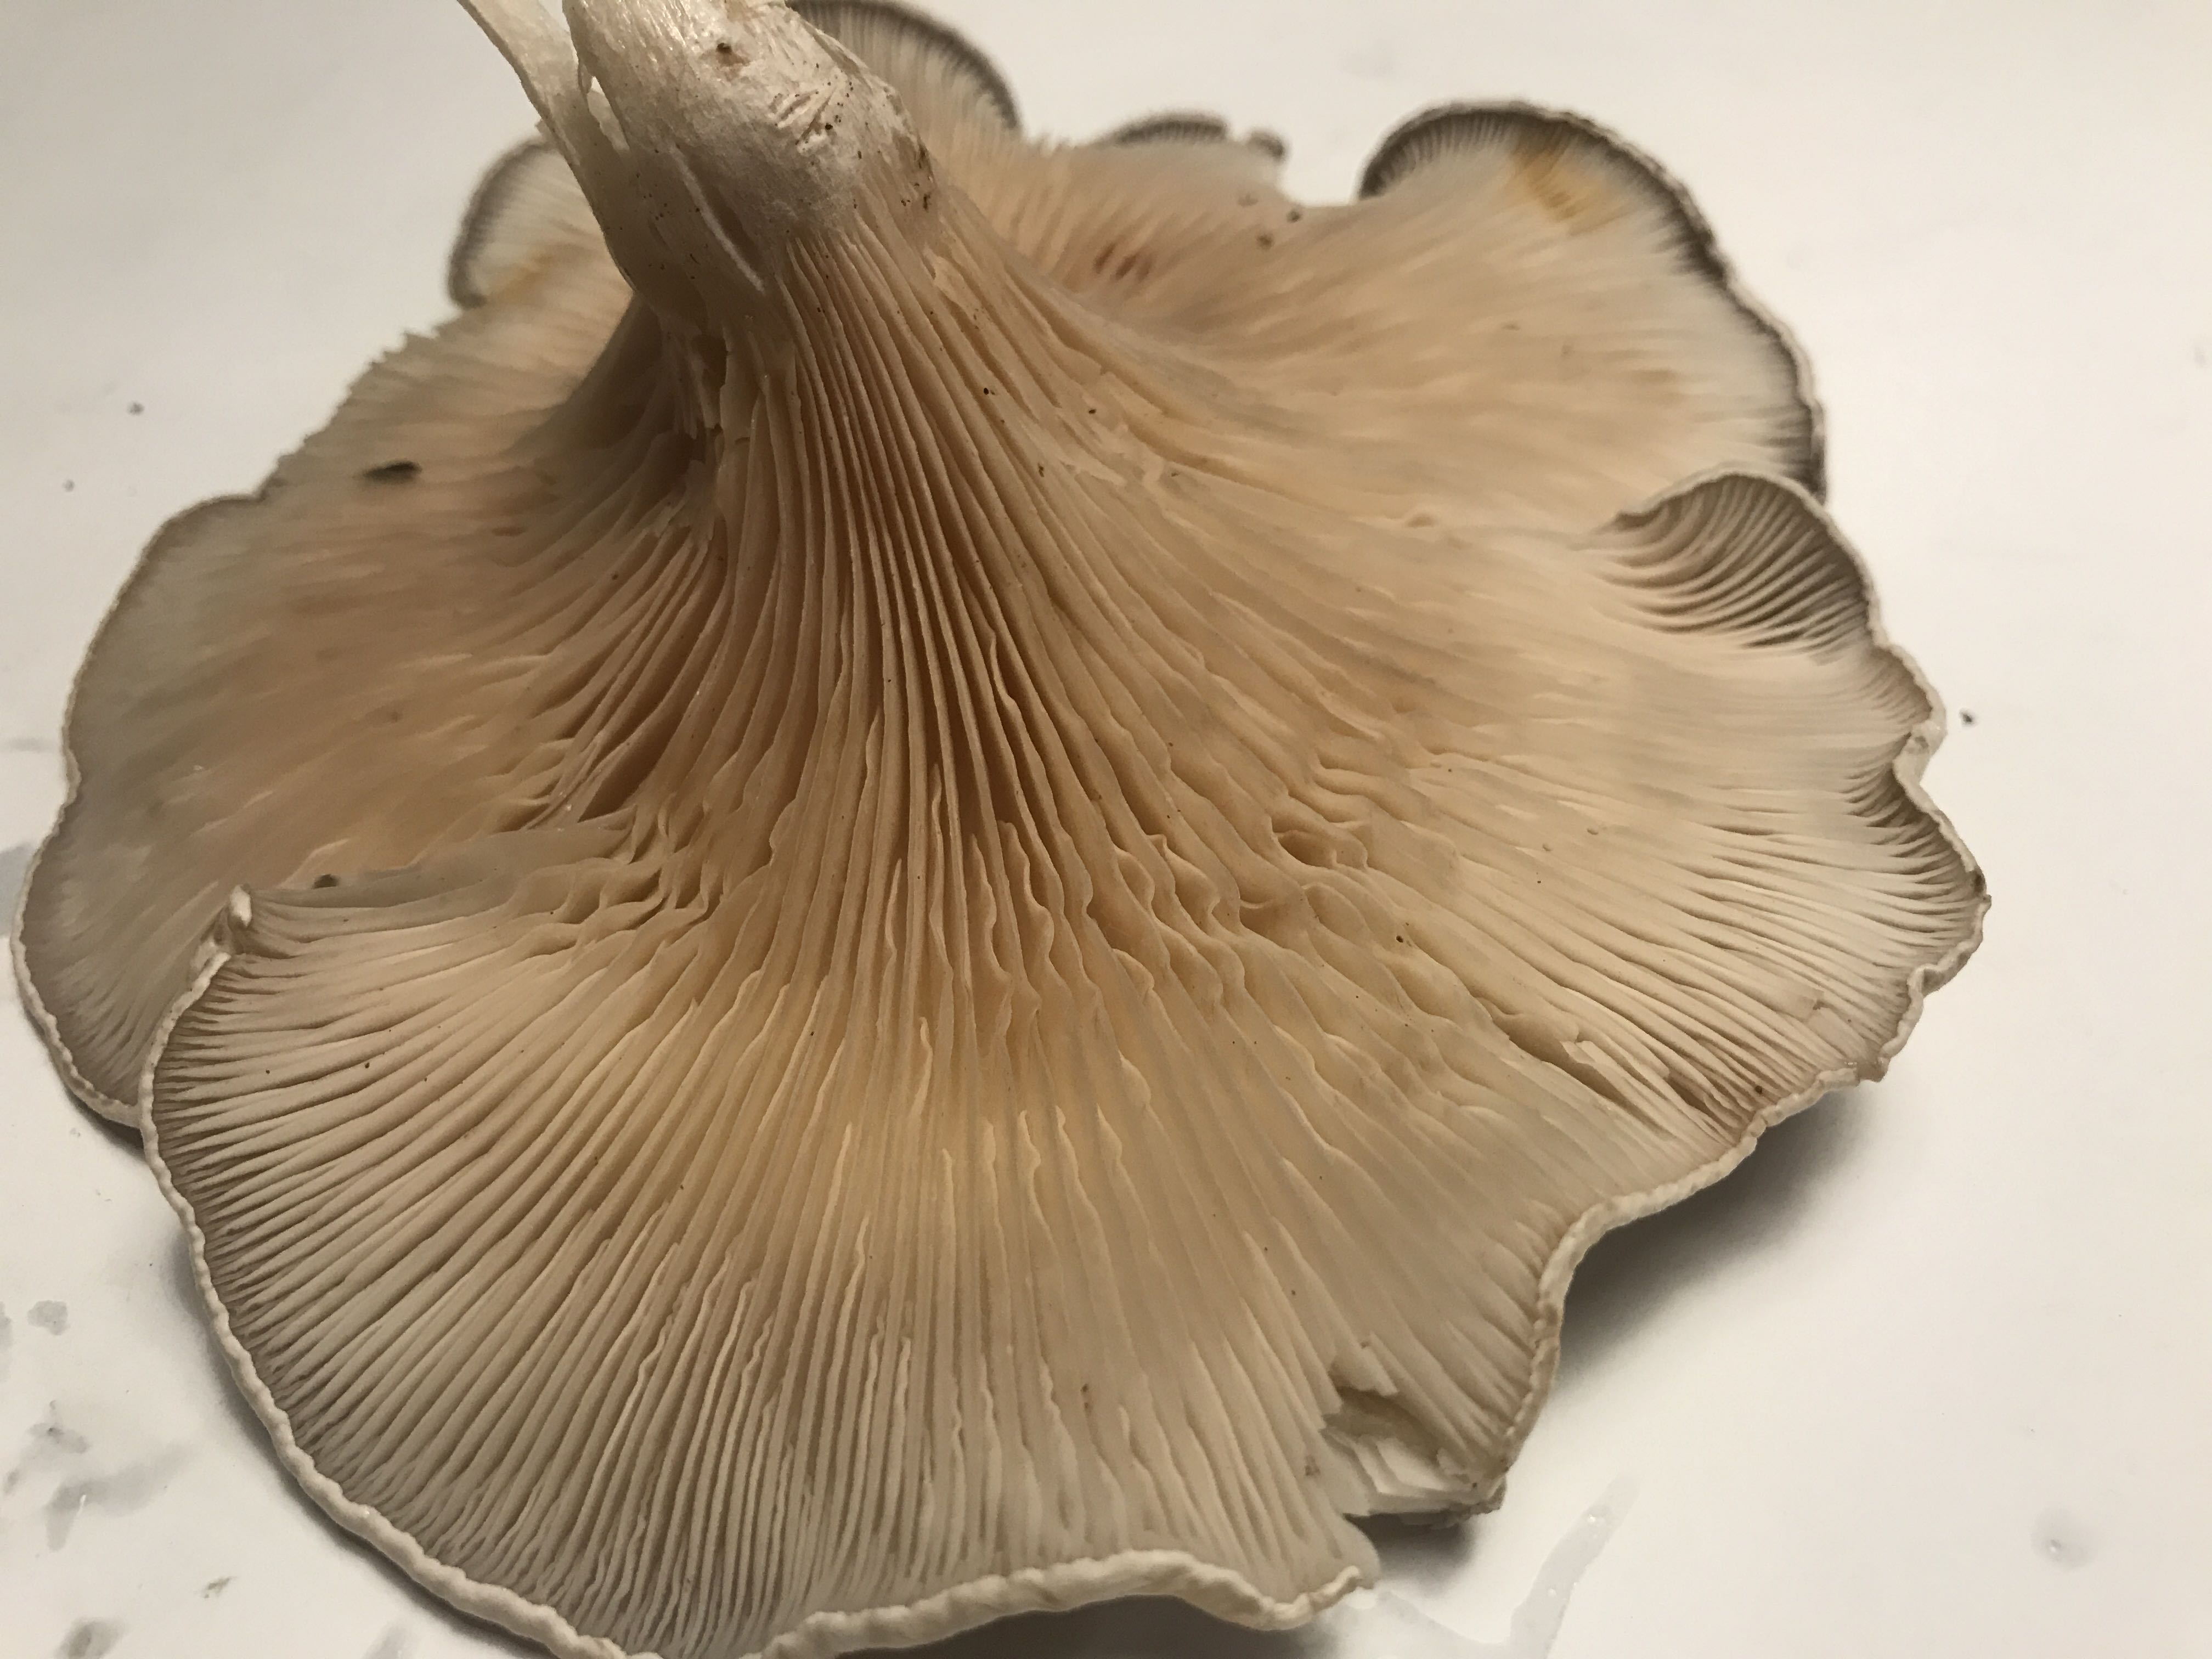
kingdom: Fungi
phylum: Basidiomycota
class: Agaricomycetes
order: Agaricales
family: Entolomataceae
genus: Clitopilus
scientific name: Clitopilus prunulus
